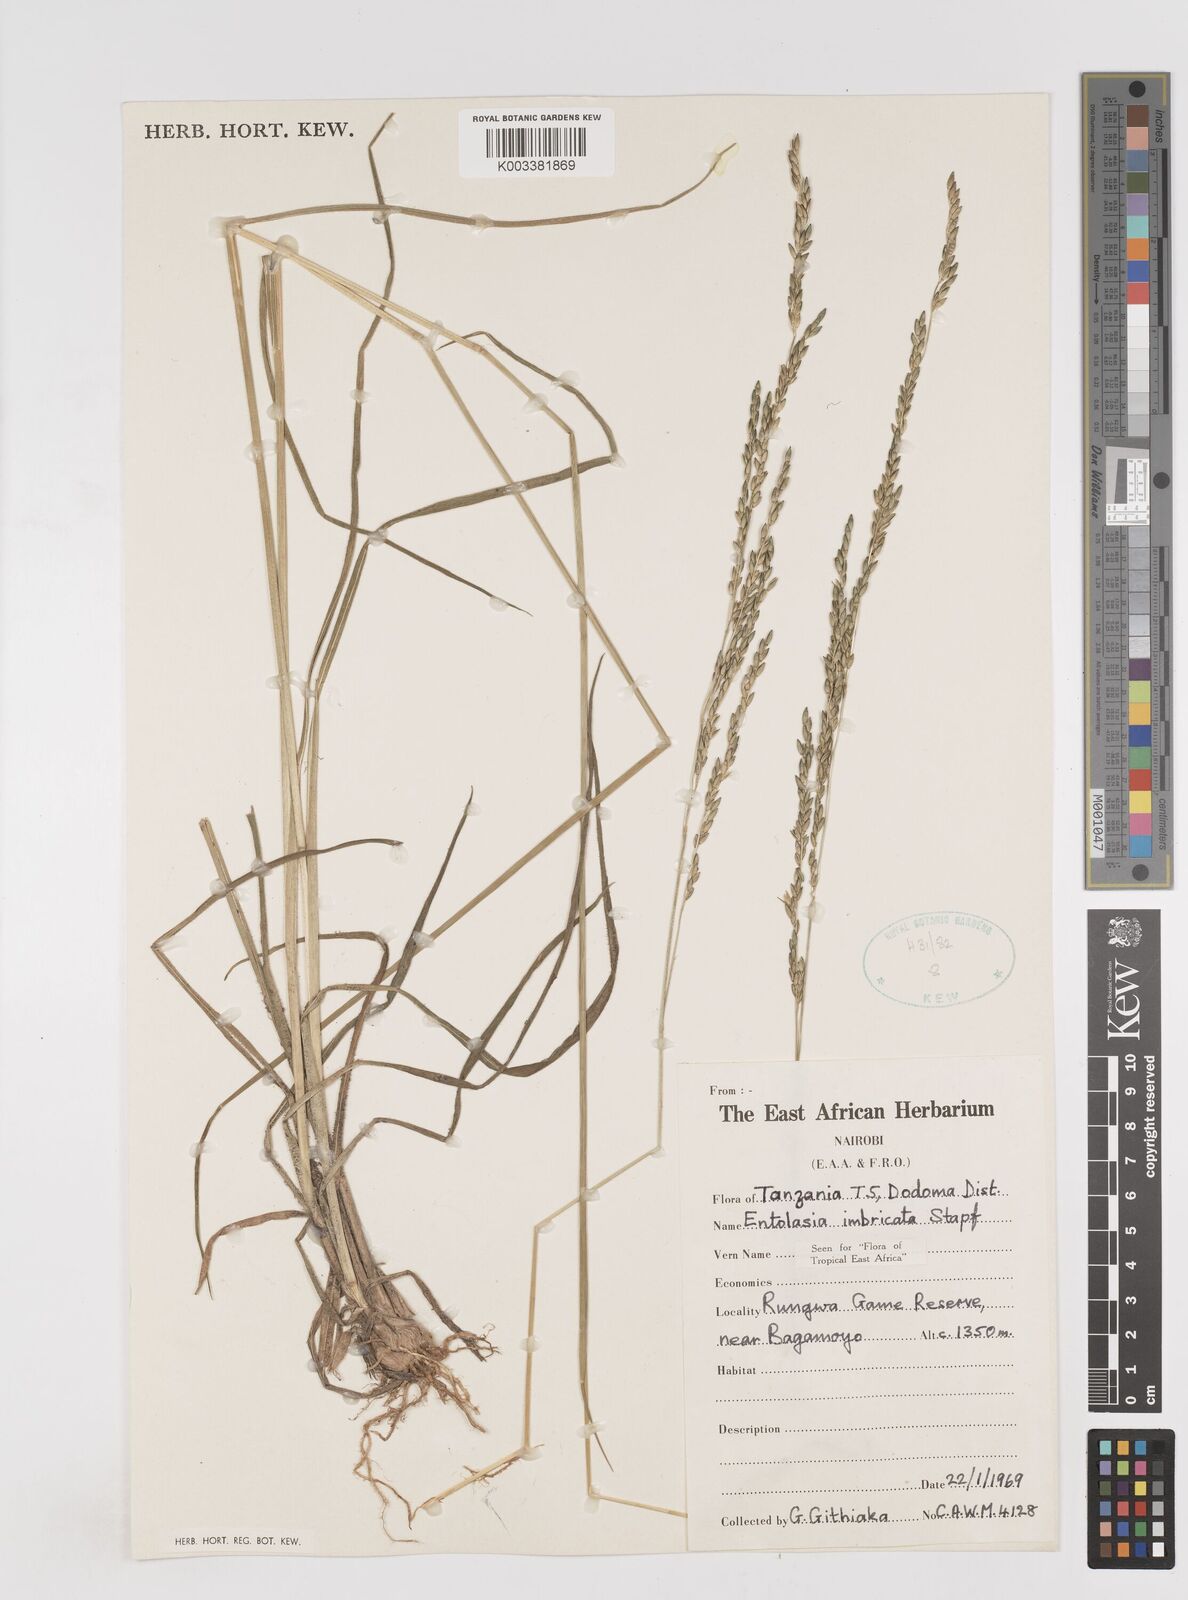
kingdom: Plantae
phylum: Tracheophyta
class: Liliopsida
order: Poales
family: Poaceae
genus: Entolasia
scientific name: Entolasia imbricata
